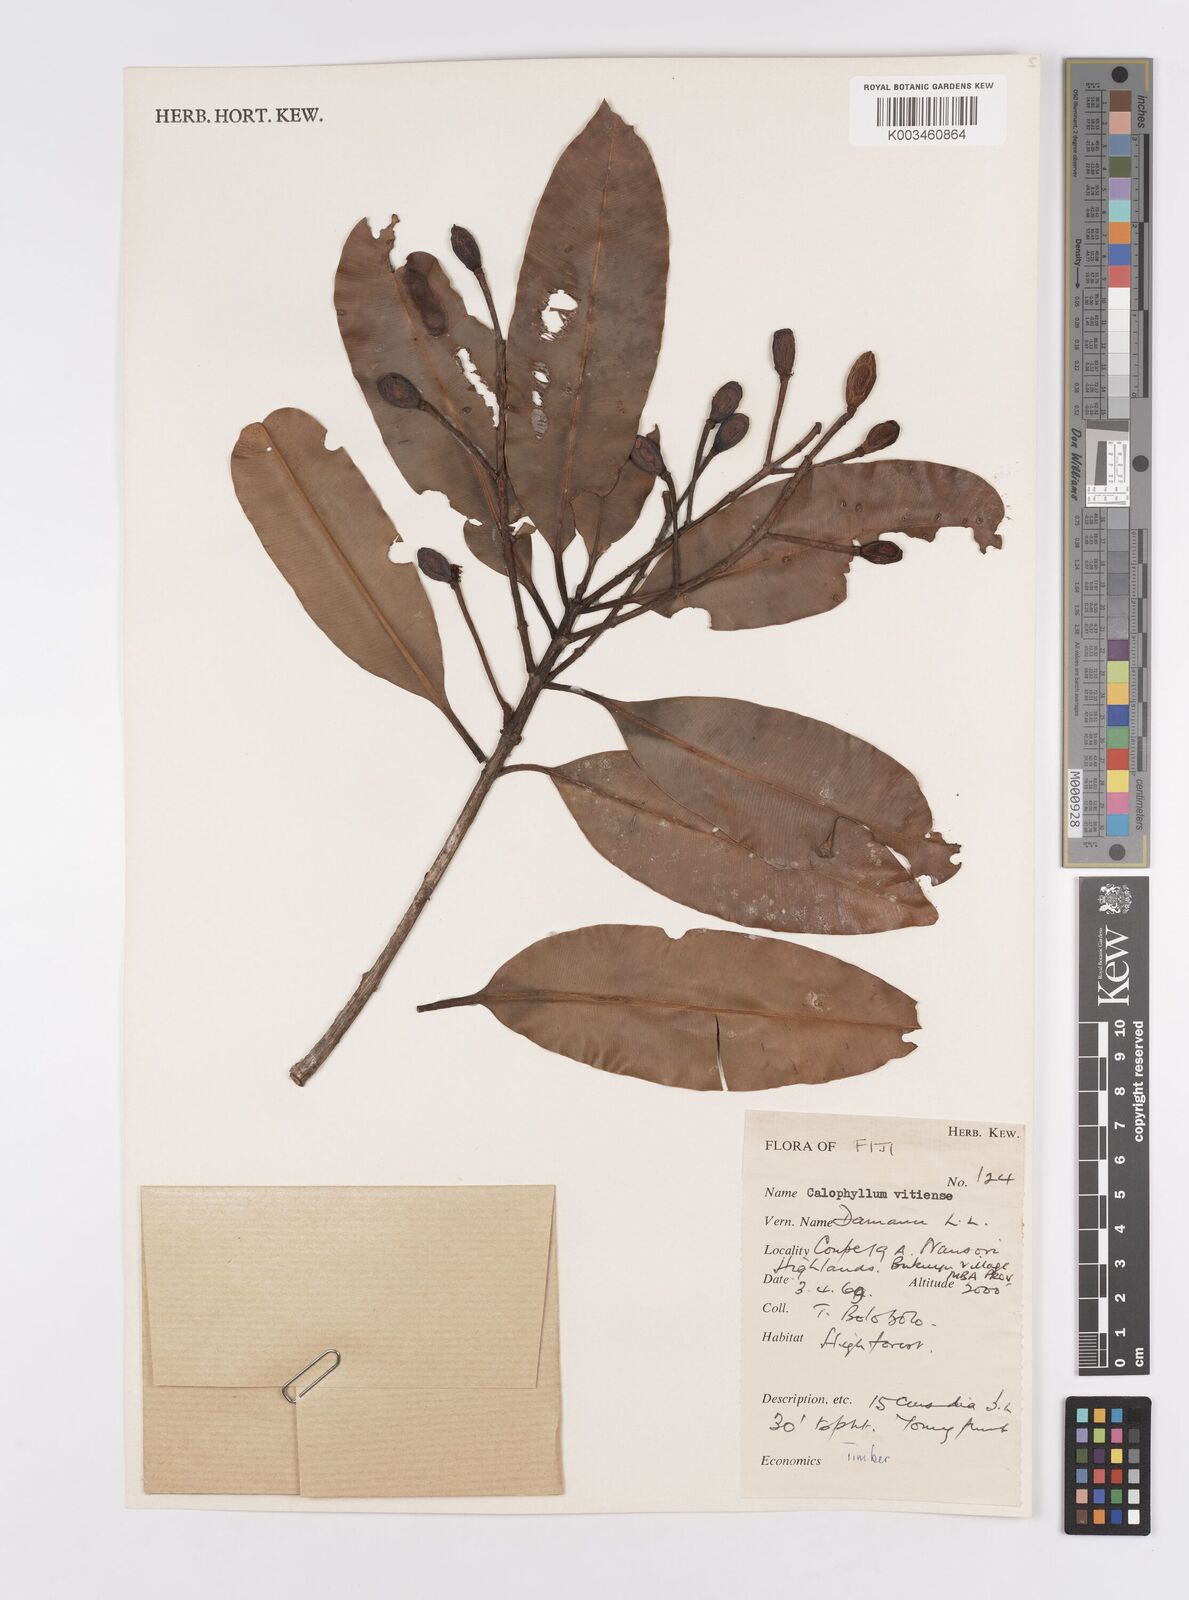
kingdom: Plantae
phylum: Tracheophyta
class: Magnoliopsida
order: Malpighiales
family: Calophyllaceae
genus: Calophyllum
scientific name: Calophyllum vitiense
